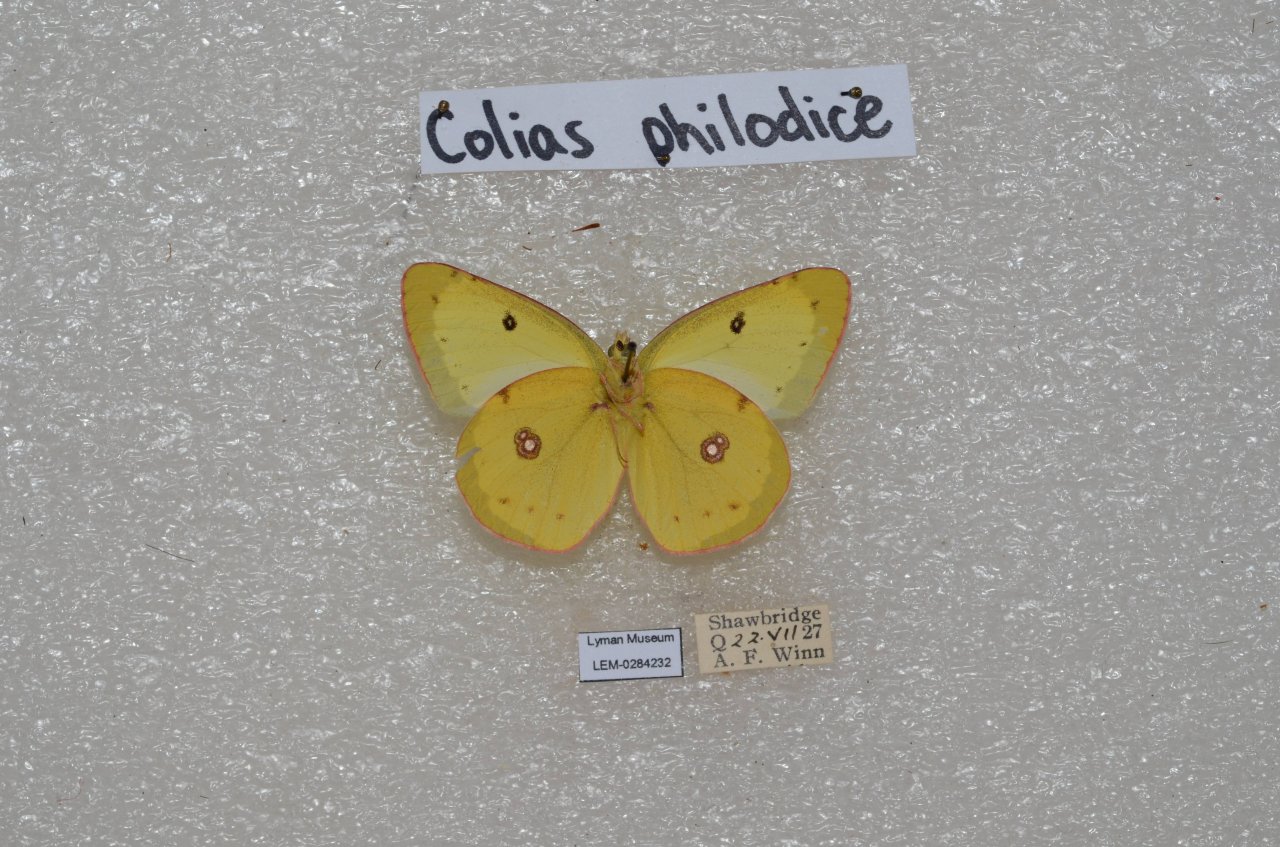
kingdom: Animalia
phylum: Arthropoda
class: Insecta
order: Lepidoptera
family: Pieridae
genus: Colias
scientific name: Colias philodice
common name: Clouded Sulphur
